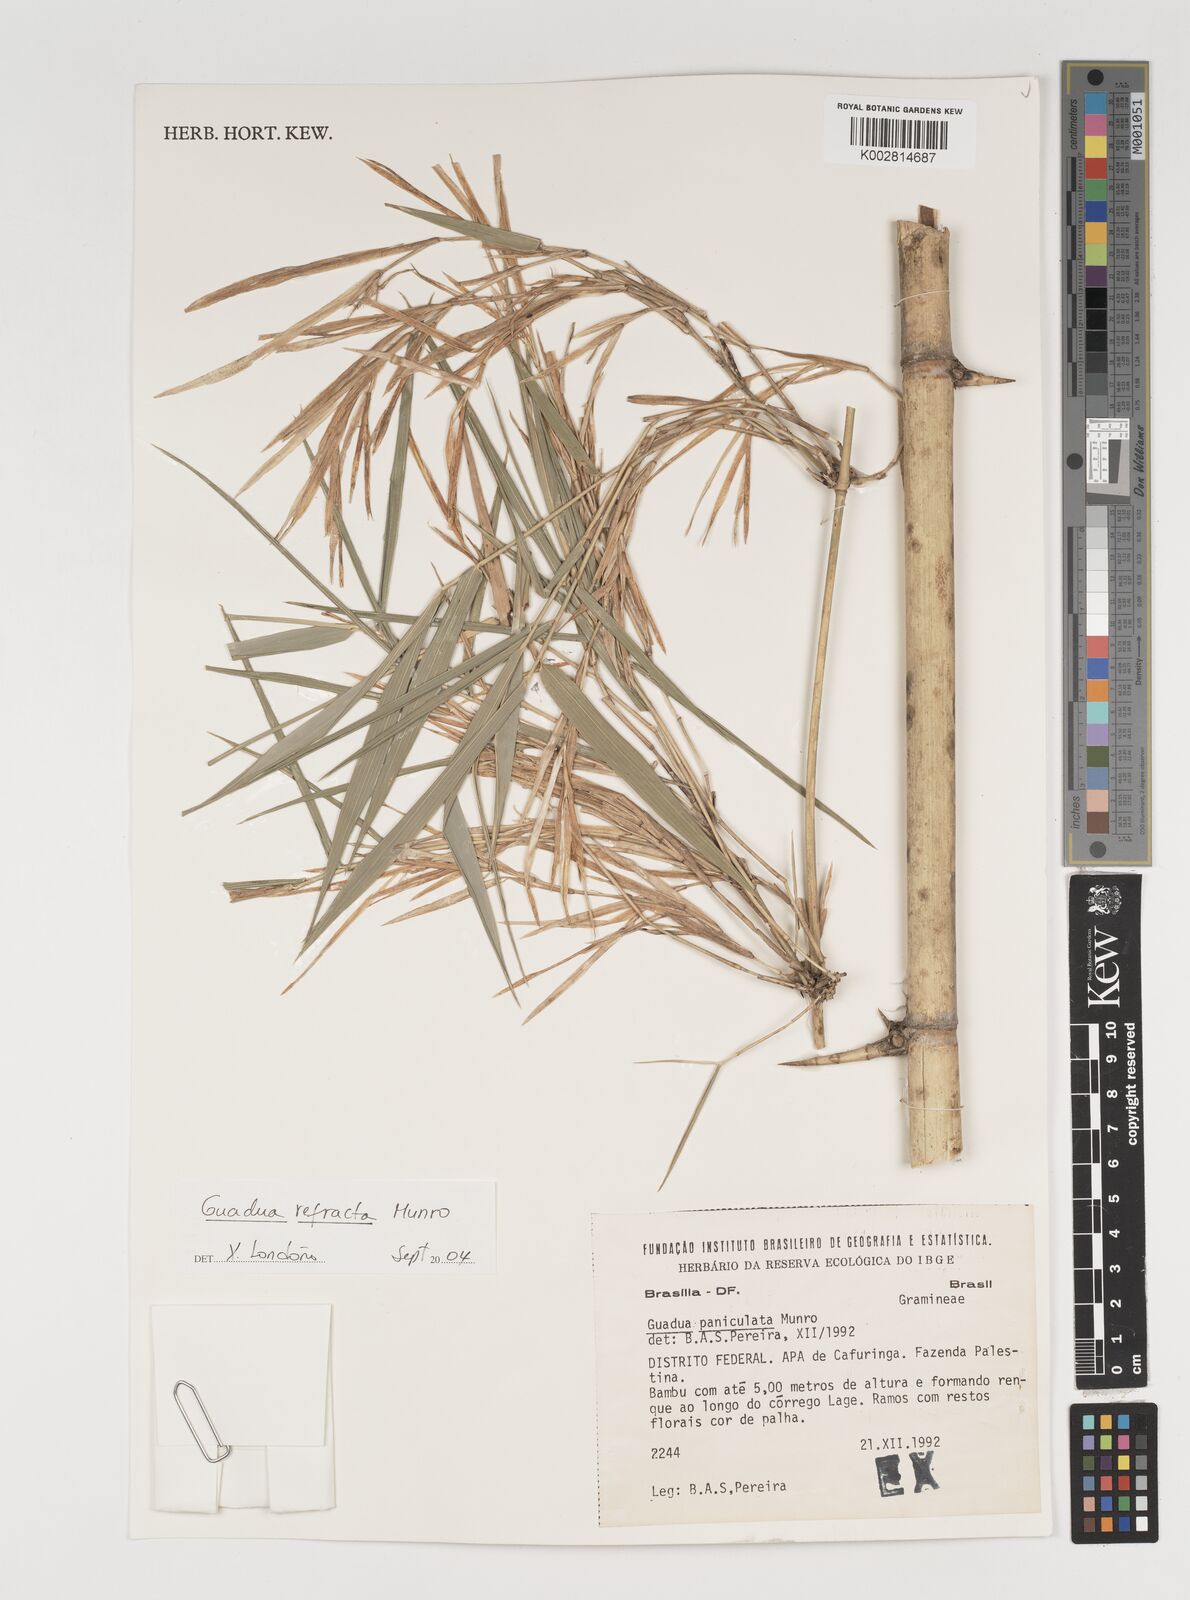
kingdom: Plantae
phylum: Tracheophyta
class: Liliopsida
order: Poales
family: Poaceae
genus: Guadua
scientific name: Guadua refracta
